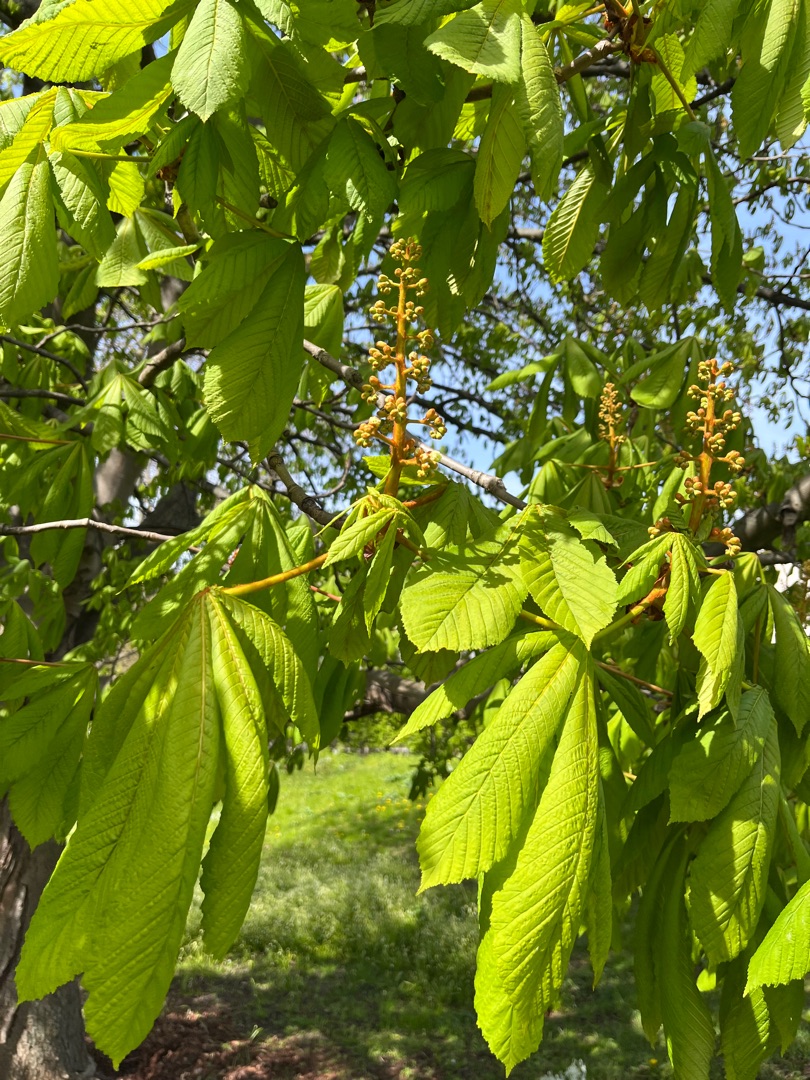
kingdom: Plantae
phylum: Tracheophyta
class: Magnoliopsida
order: Sapindales
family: Sapindaceae
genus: Aesculus
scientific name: Aesculus hippocastanum
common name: Hestekastanie
